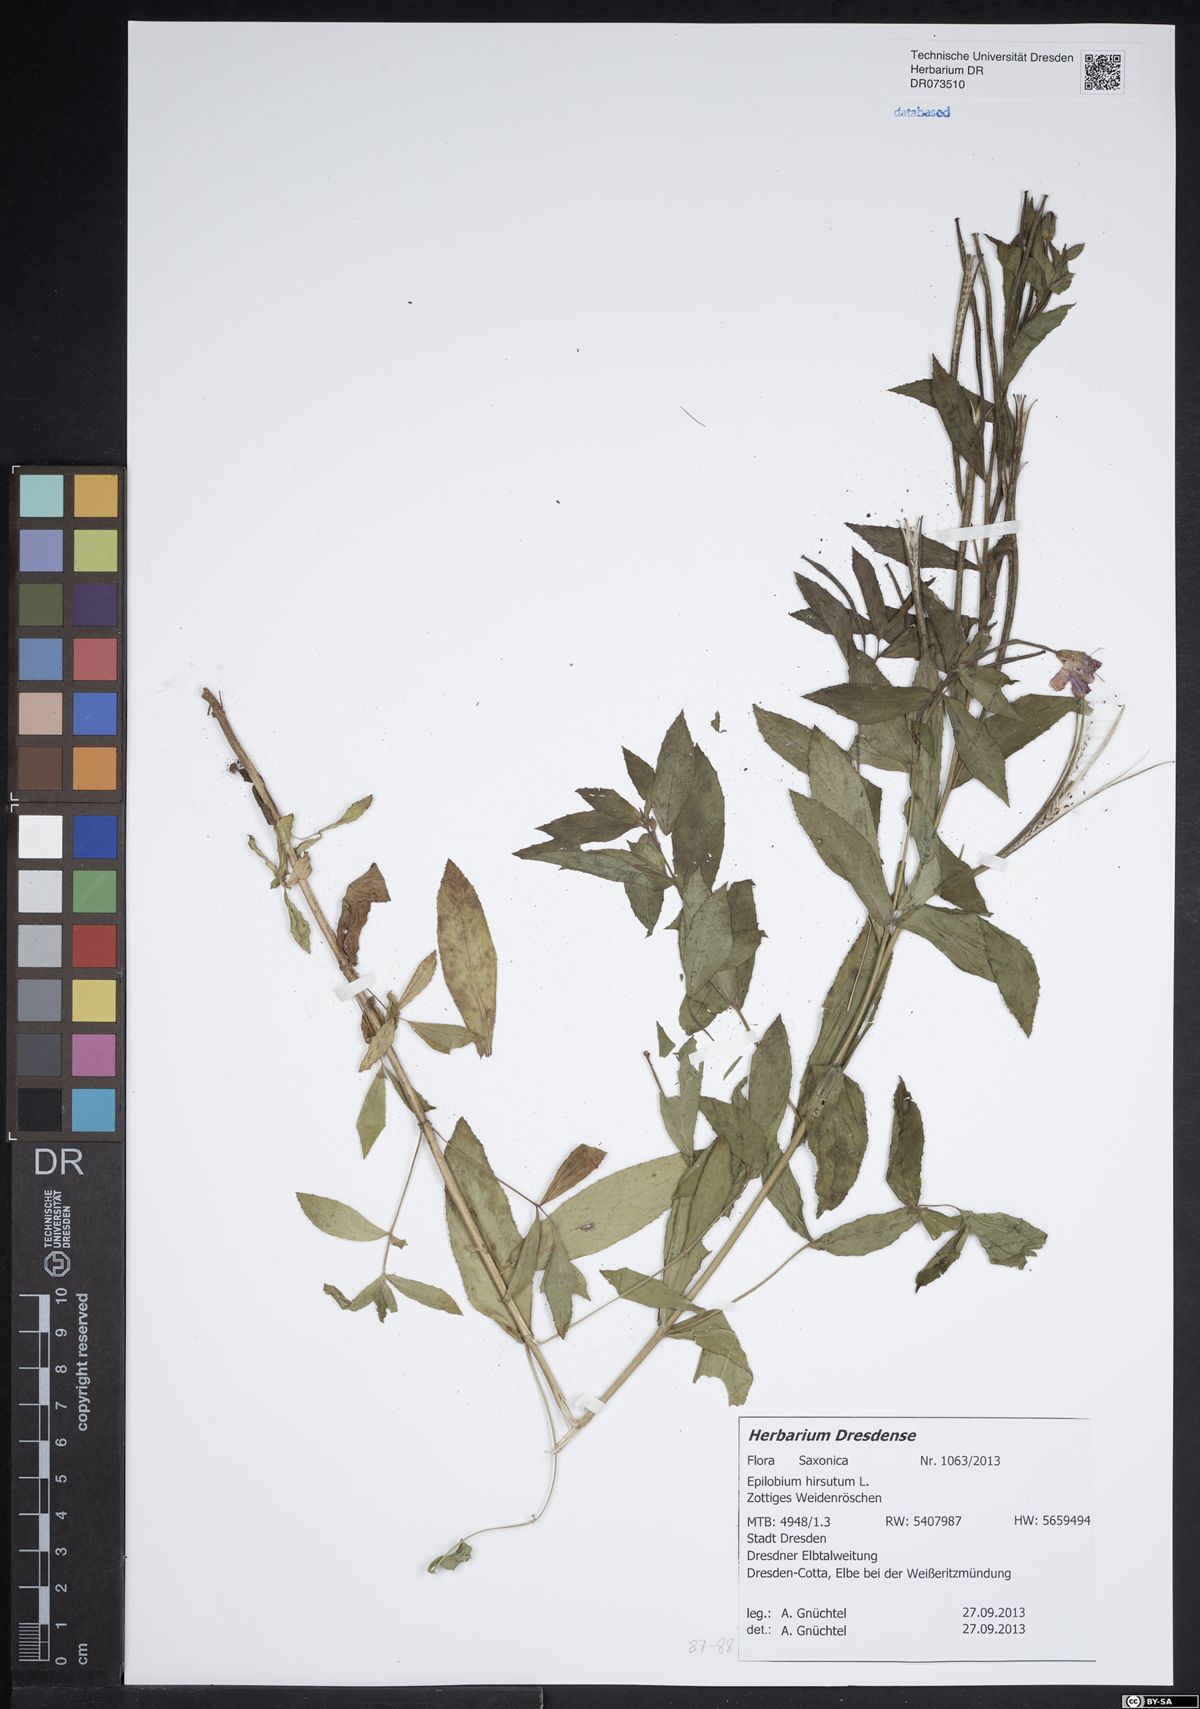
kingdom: Plantae
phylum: Tracheophyta
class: Magnoliopsida
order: Myrtales
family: Onagraceae
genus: Epilobium
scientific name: Epilobium hirsutum
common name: Great willowherb
